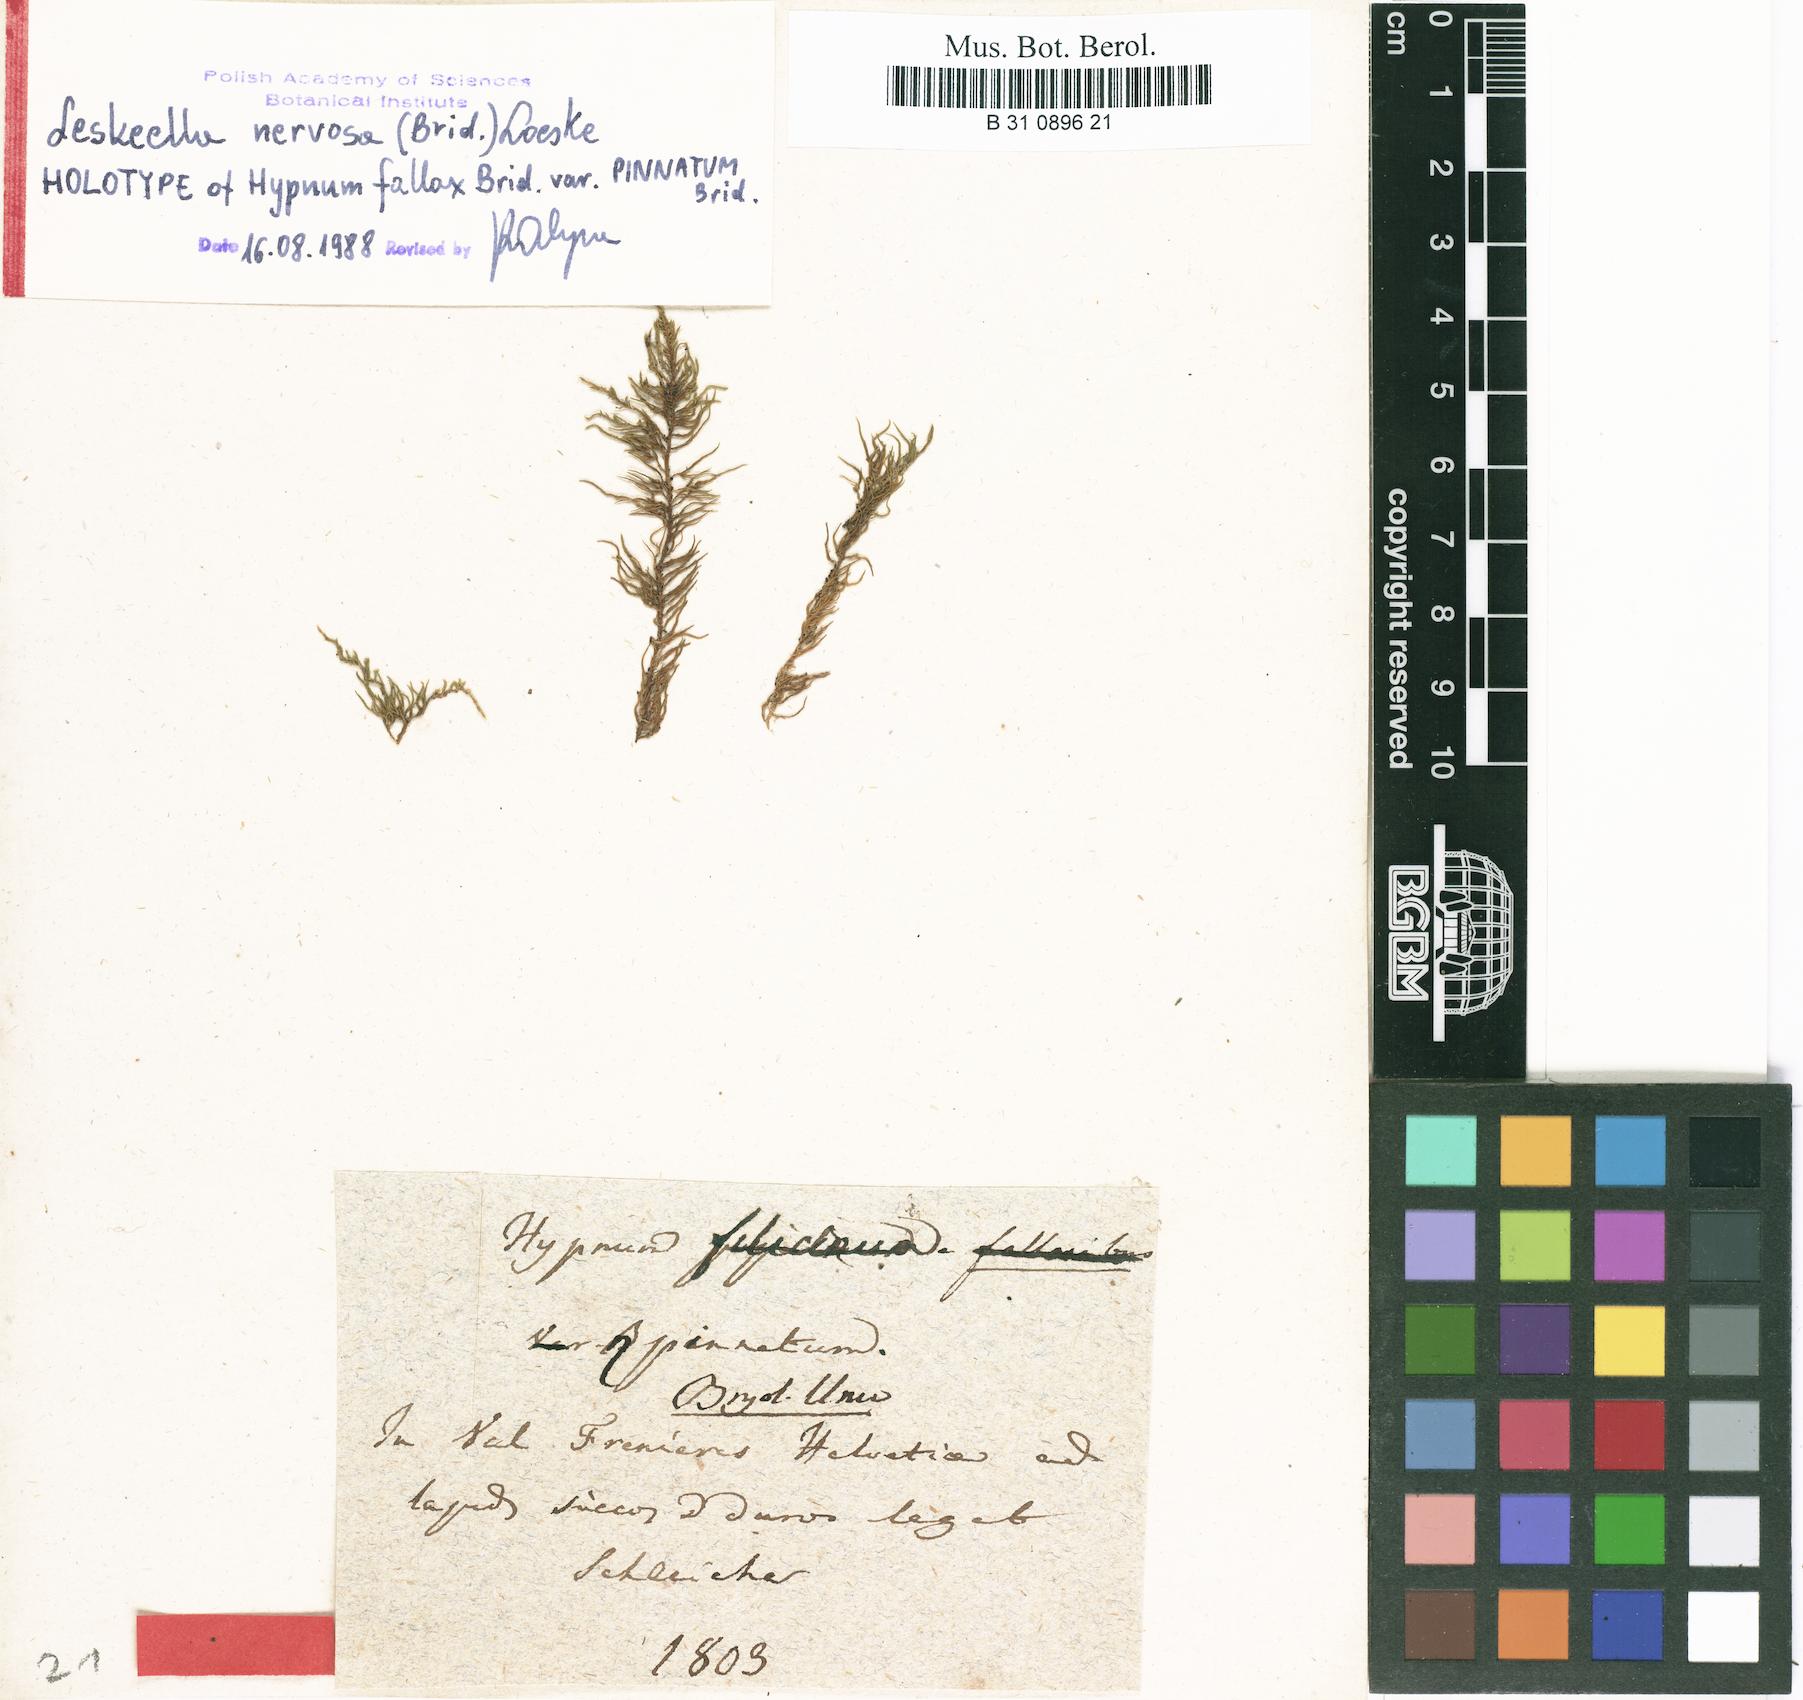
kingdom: Plantae
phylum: Bryophyta
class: Bryopsida
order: Hypnales
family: Amblystegiaceae
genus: Cratoneuron
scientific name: Cratoneuron filicinum
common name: Fern-leaved hook moss
